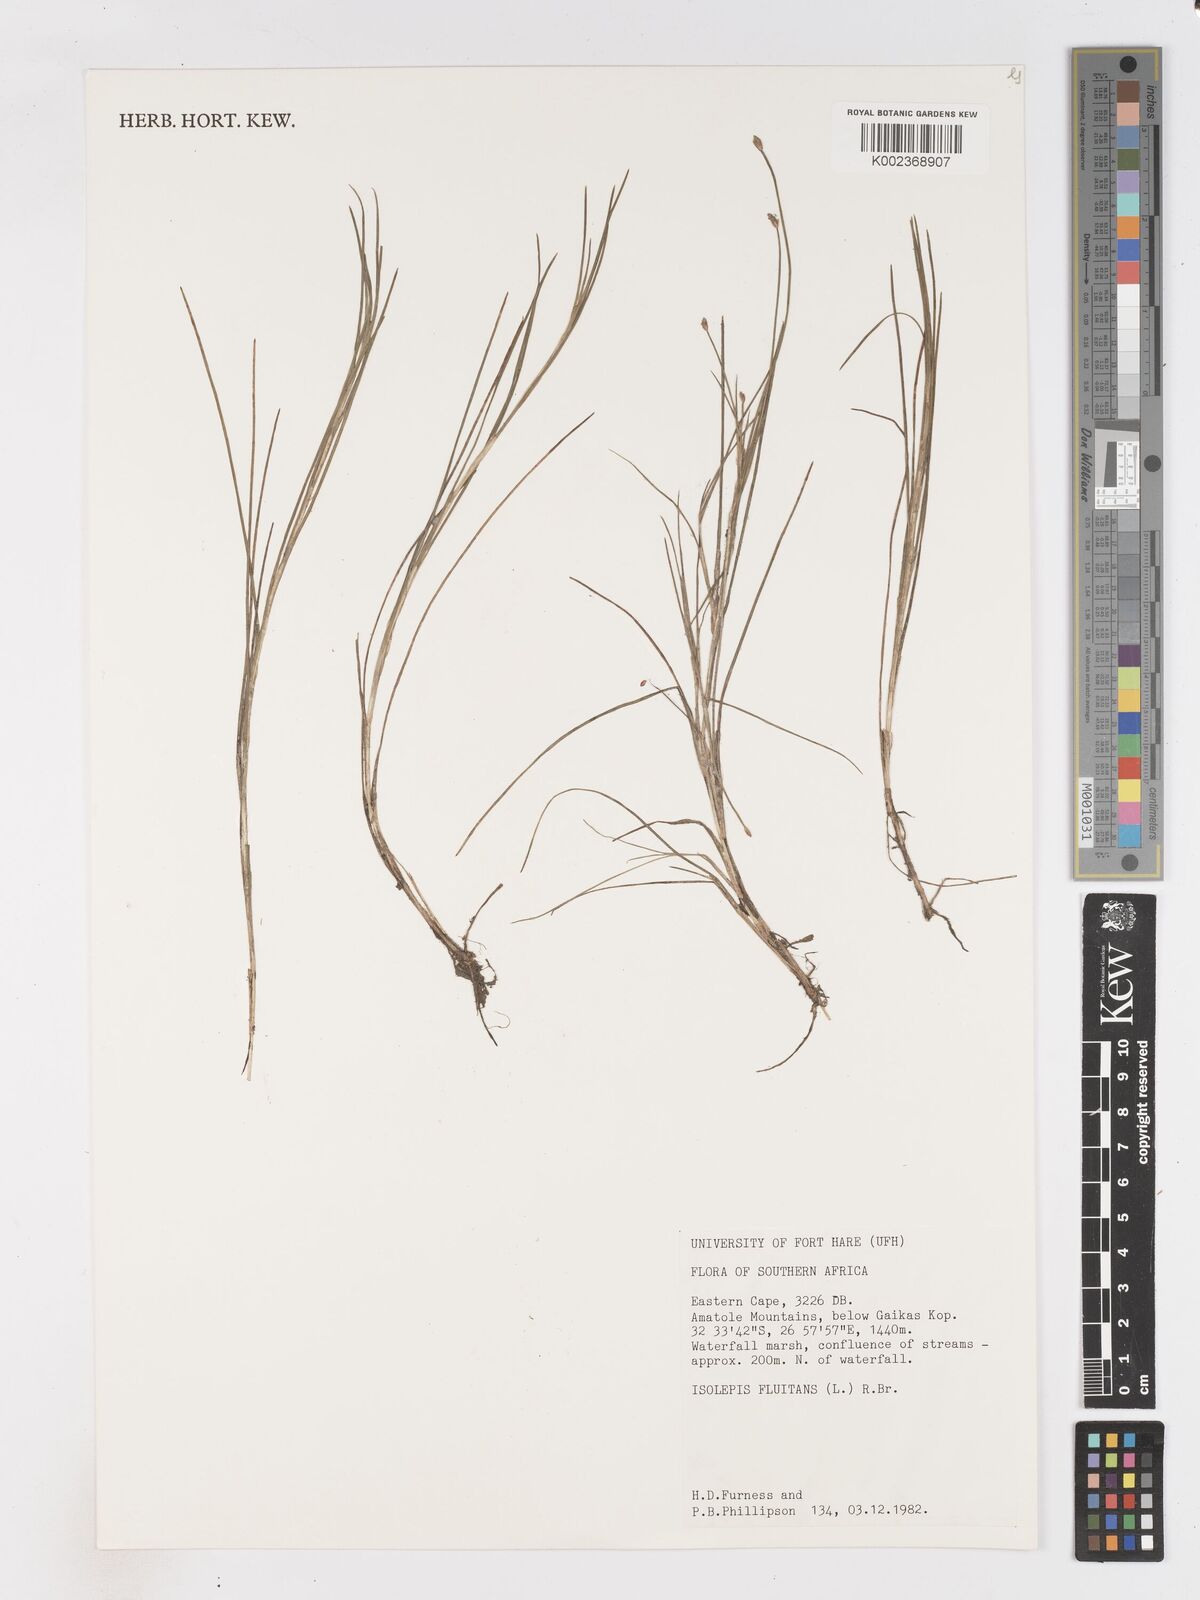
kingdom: Plantae
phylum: Tracheophyta
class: Liliopsida
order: Poales
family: Cyperaceae
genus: Isolepis
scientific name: Isolepis fluitans
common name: Floating club-rush
